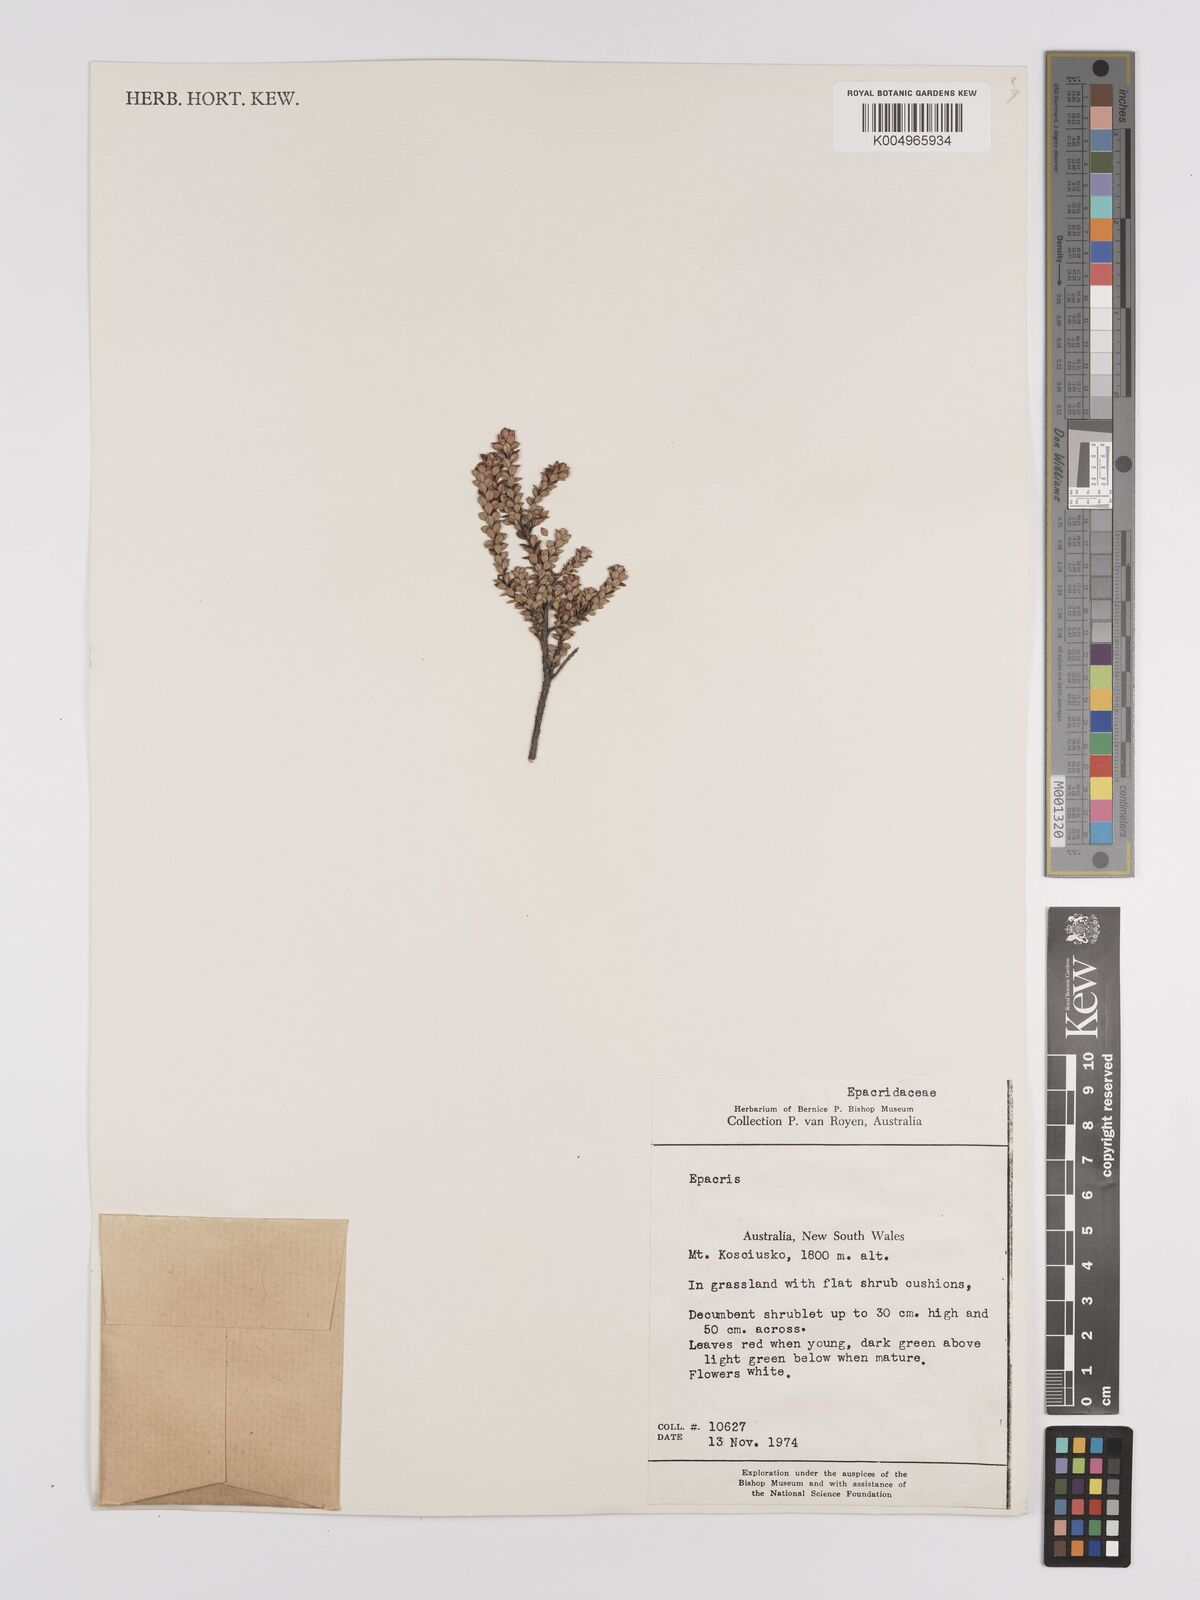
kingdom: Plantae
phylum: Tracheophyta
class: Magnoliopsida
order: Ericales
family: Ericaceae
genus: Epacris
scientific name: Epacris
